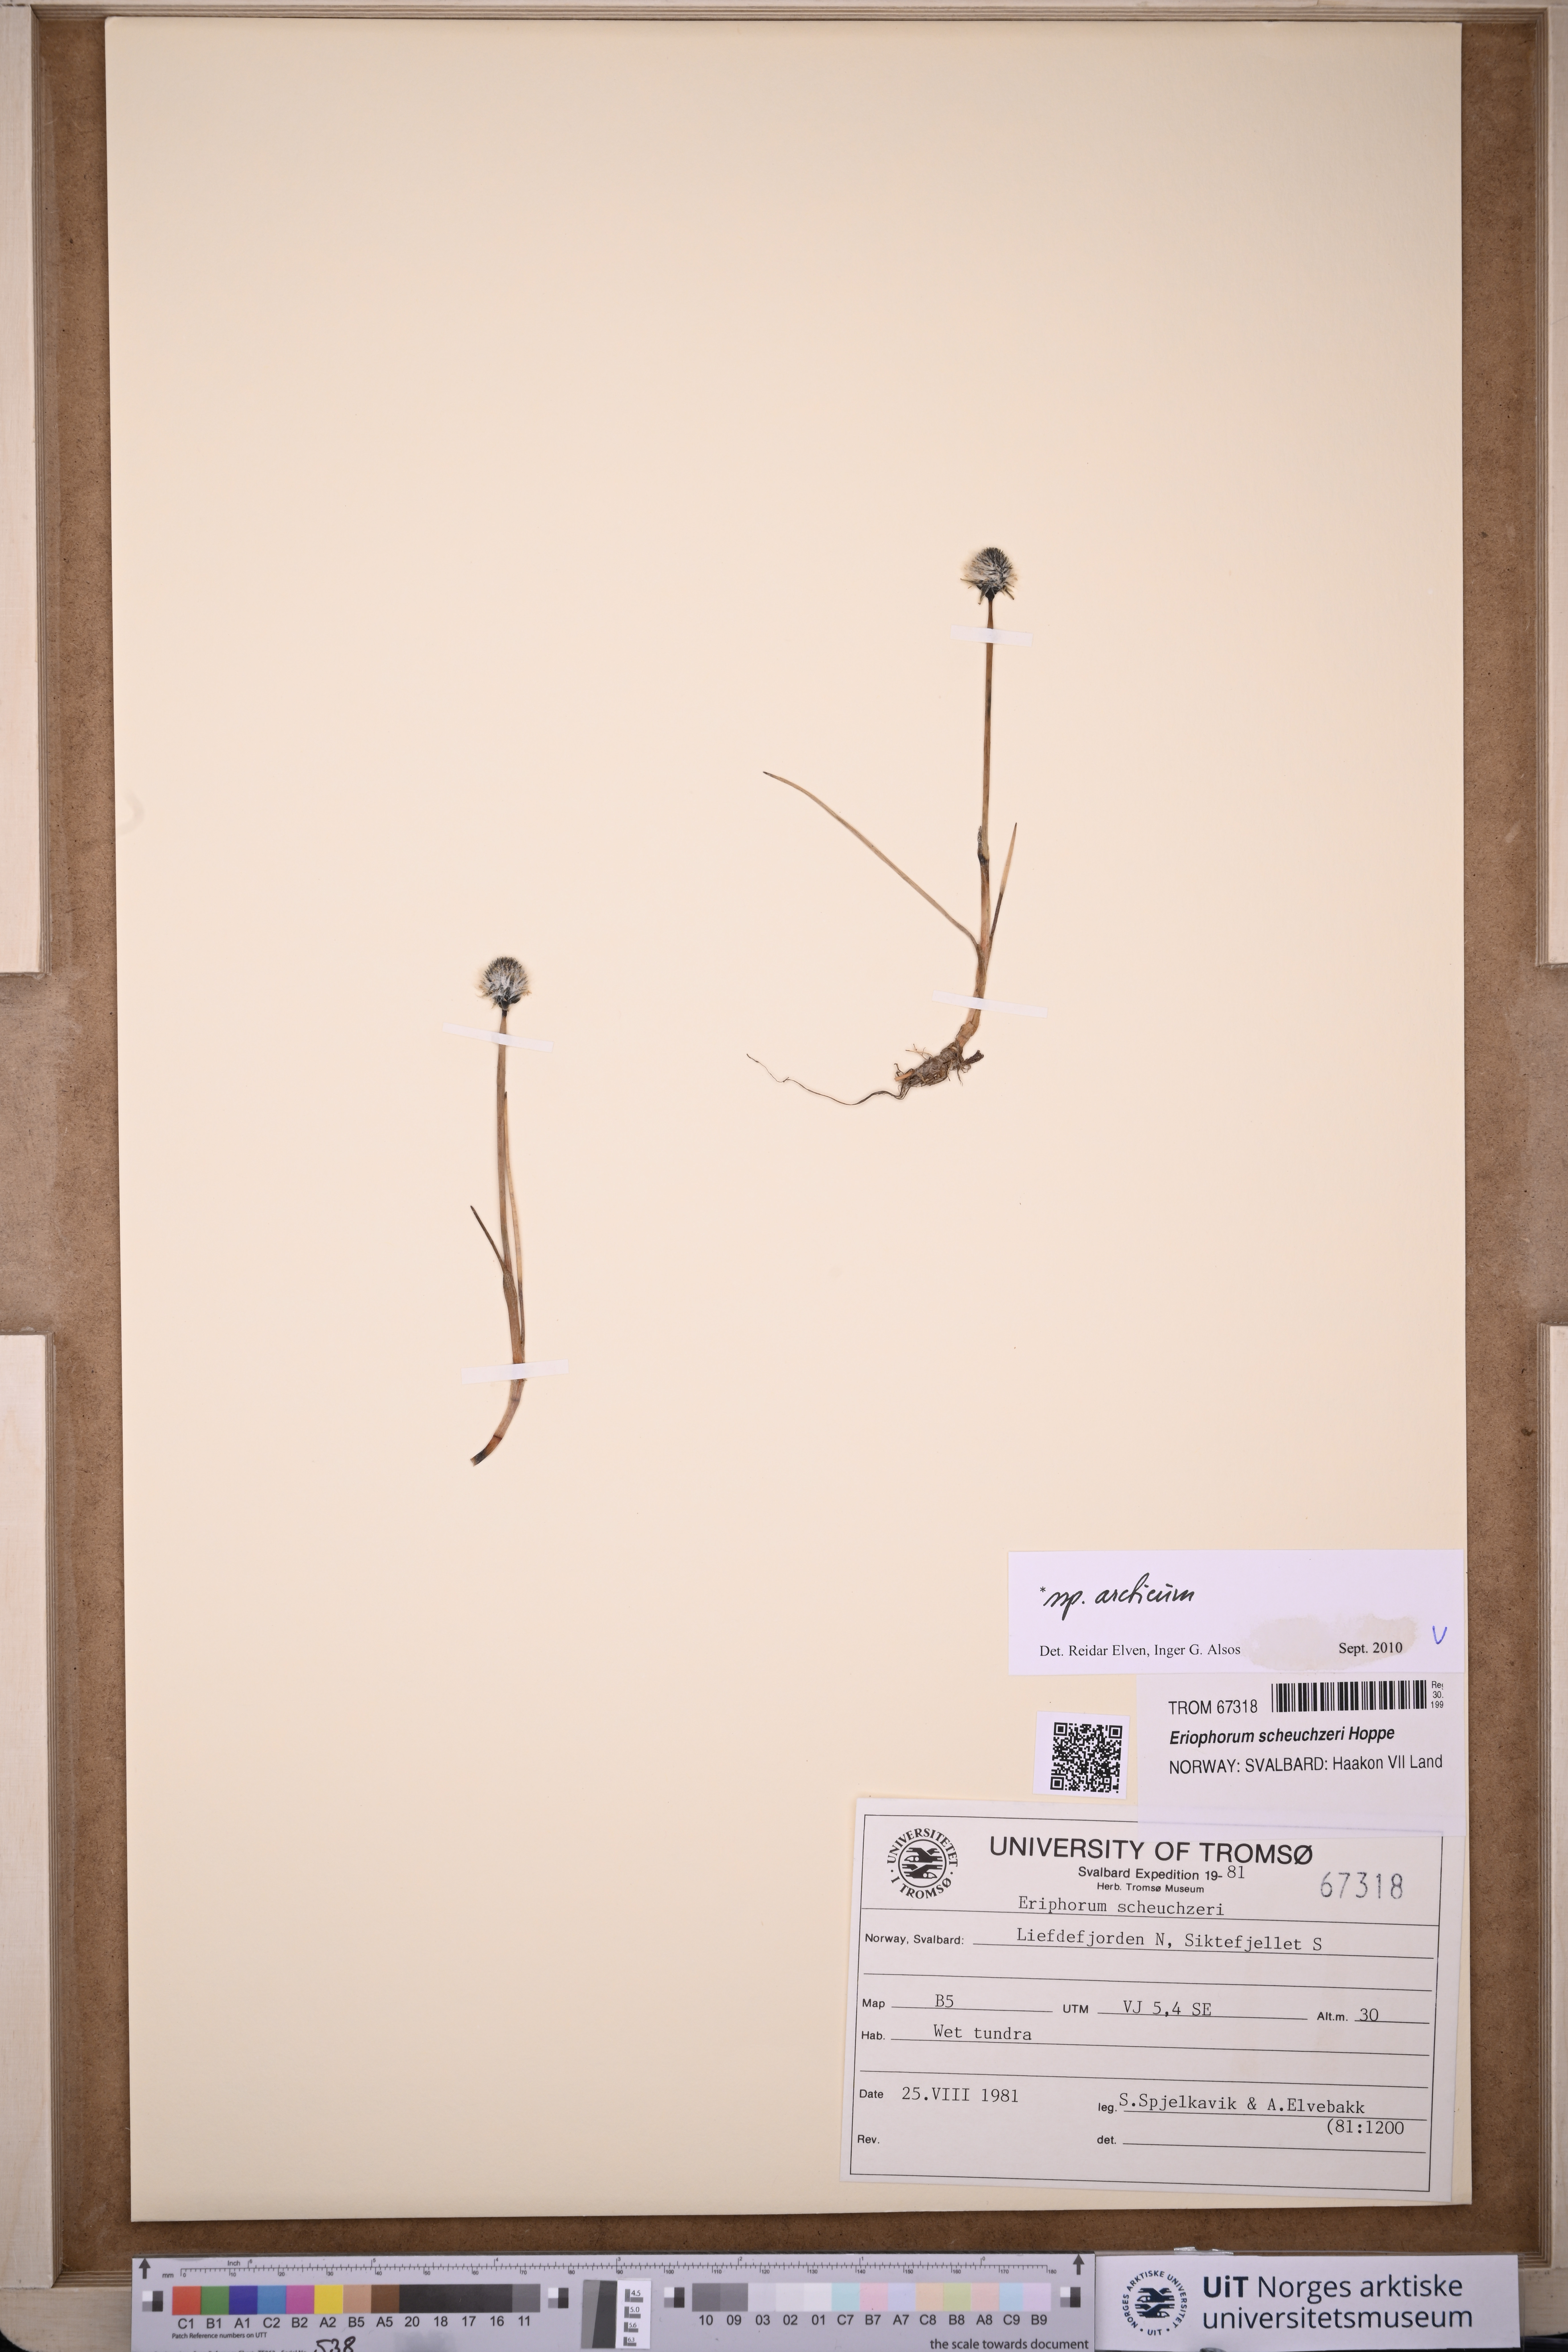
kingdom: Plantae
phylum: Tracheophyta
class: Liliopsida
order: Poales
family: Cyperaceae
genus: Eriophorum
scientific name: Eriophorum scheuchzeri
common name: Scheuchzer's cottongrass
